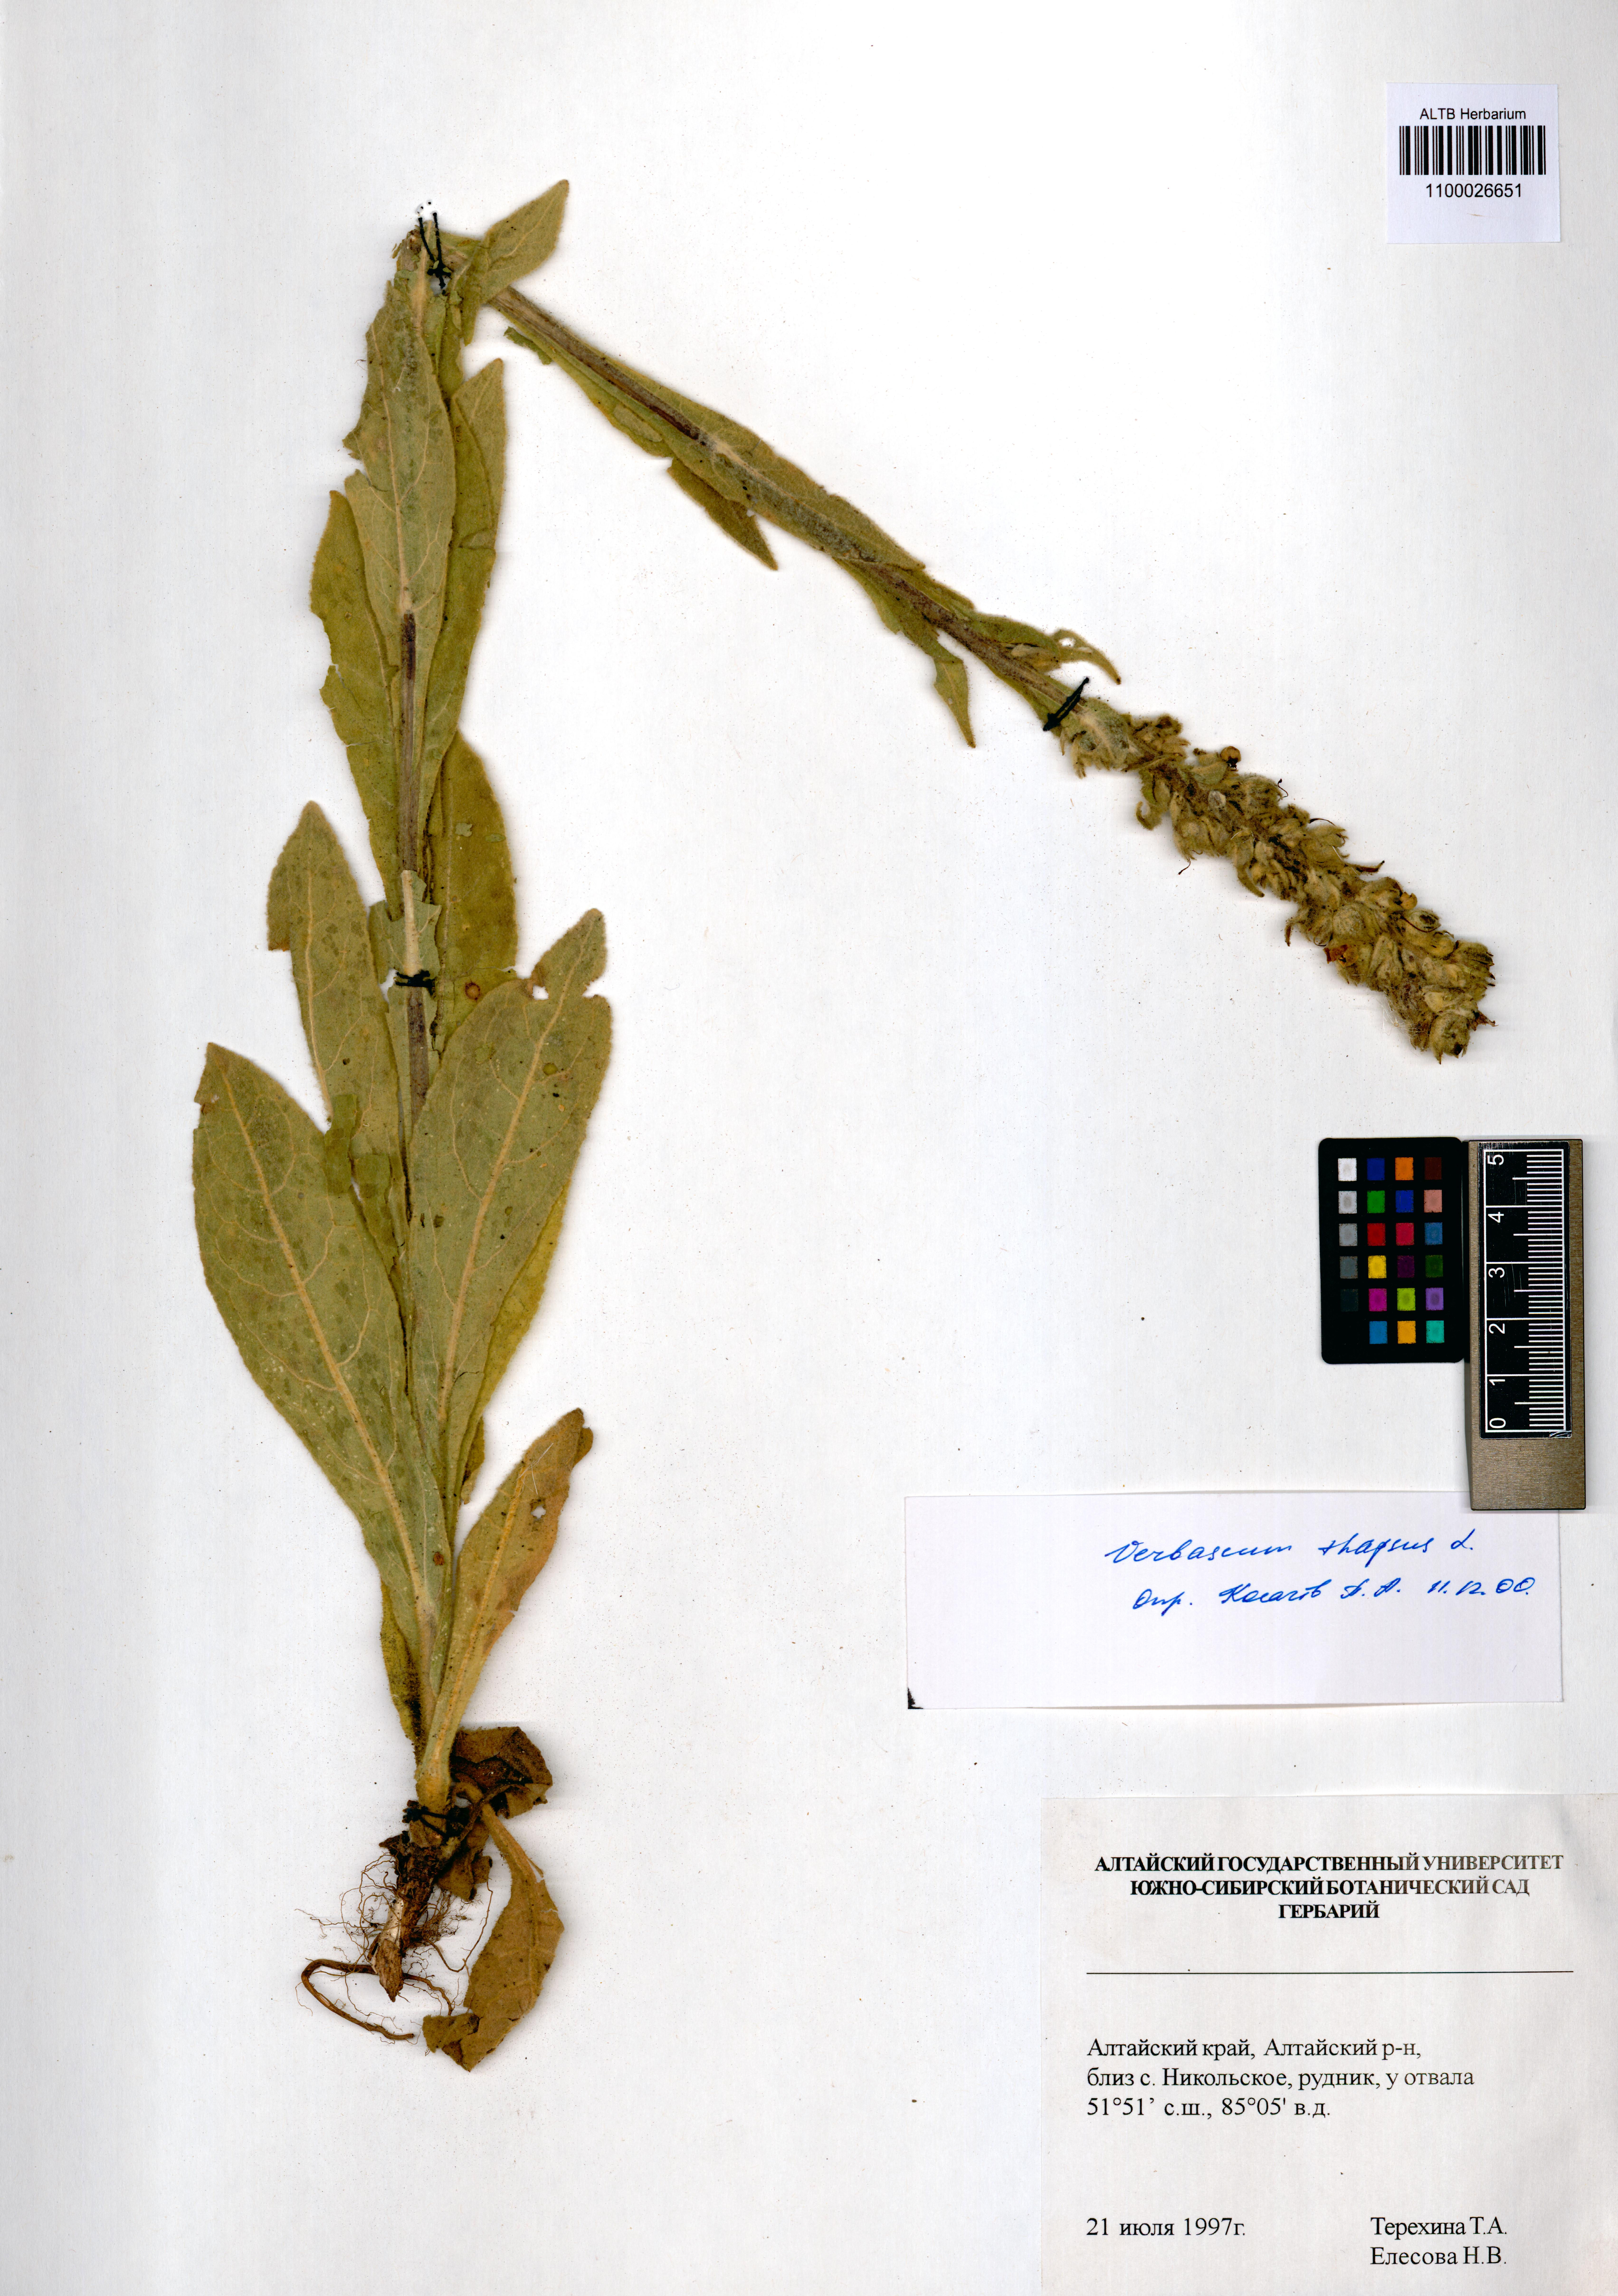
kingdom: Plantae
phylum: Tracheophyta
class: Magnoliopsida
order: Lamiales
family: Scrophulariaceae
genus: Verbascum
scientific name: Verbascum thapsus
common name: Common mullein
